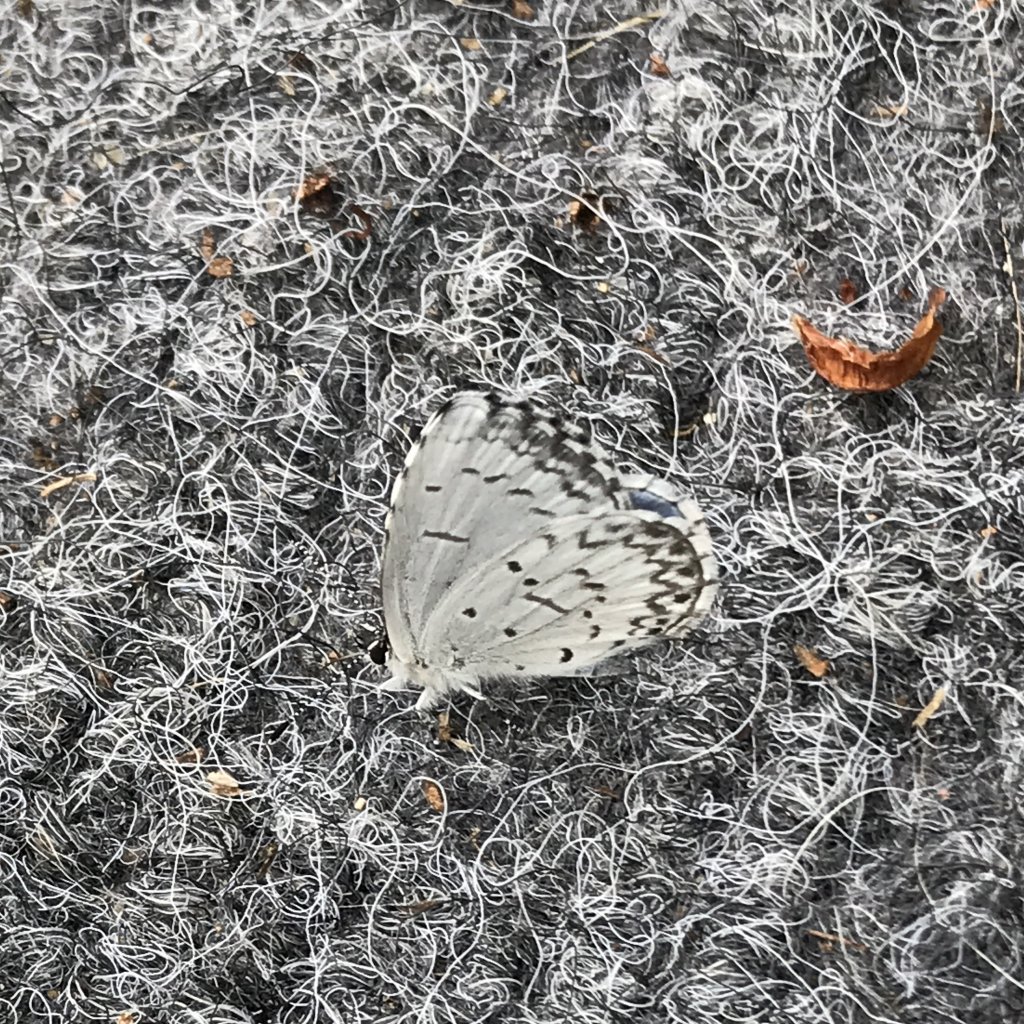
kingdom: Animalia
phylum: Arthropoda
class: Insecta
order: Lepidoptera
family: Lycaenidae
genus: Celastrina
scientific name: Celastrina lucia
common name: Northern Spring Azure
